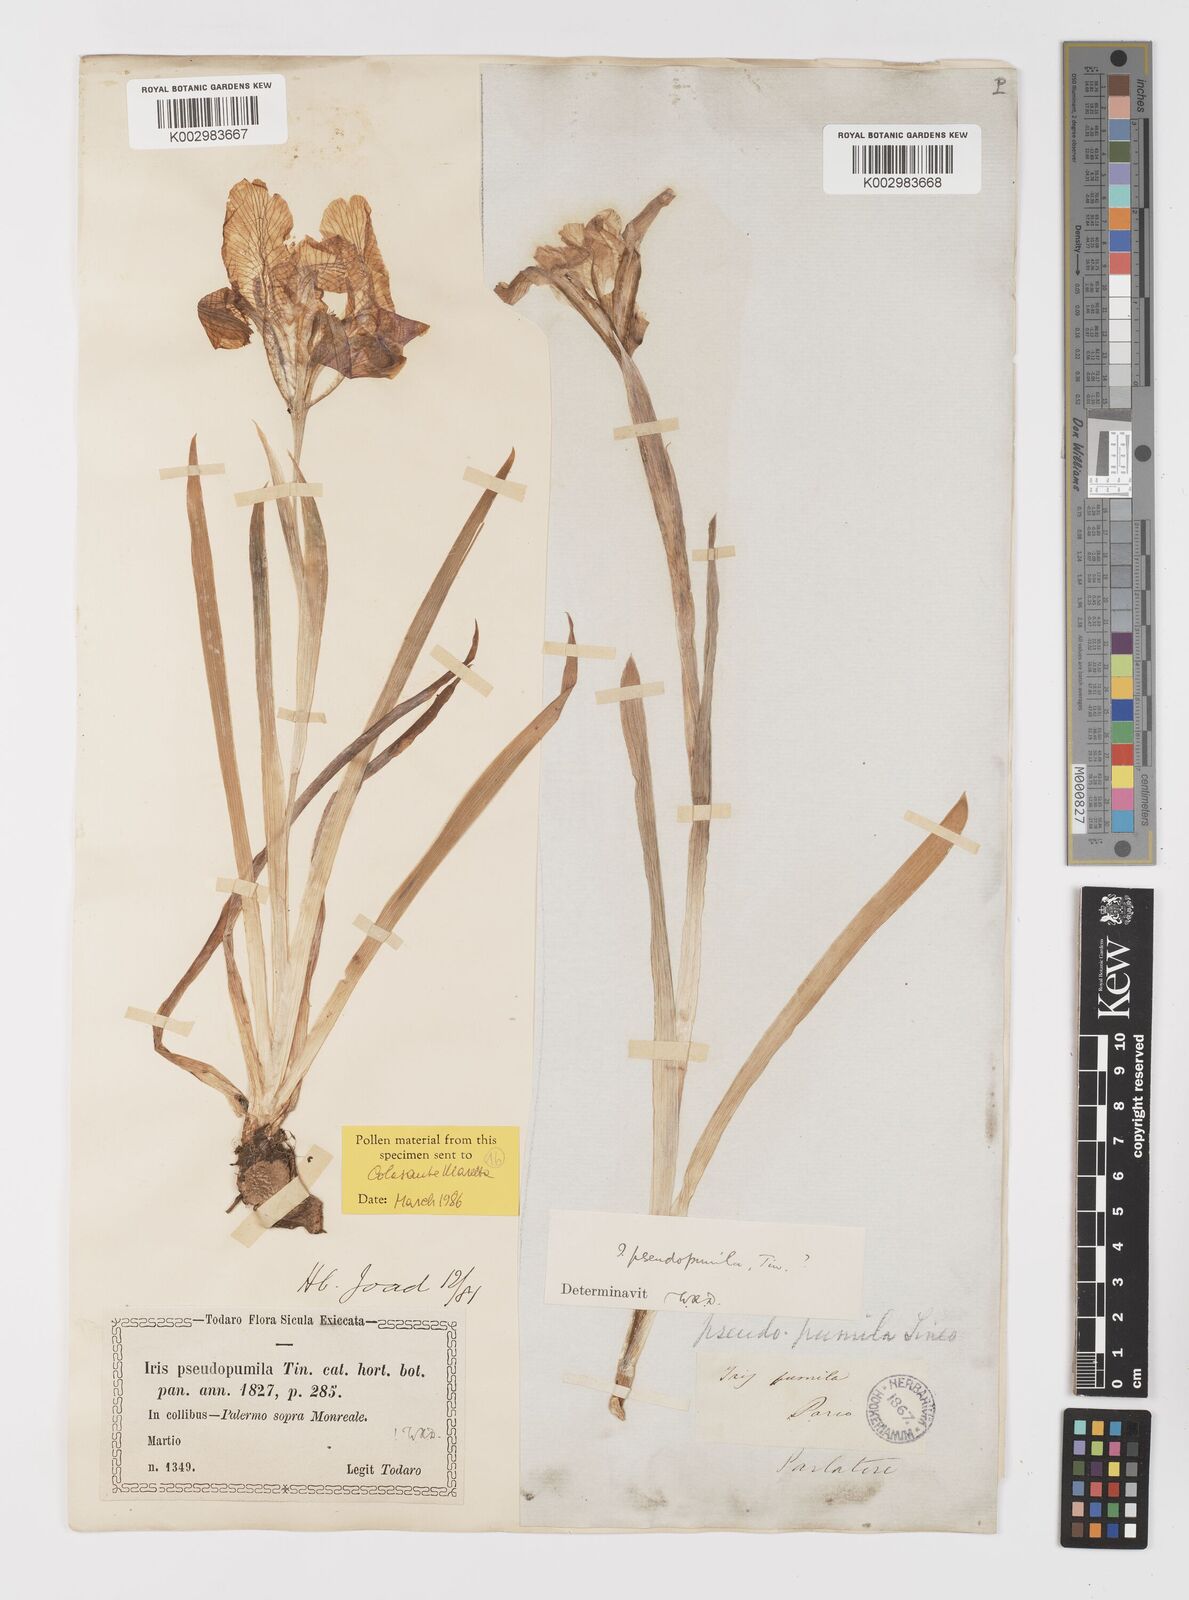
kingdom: Plantae
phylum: Tracheophyta
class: Liliopsida
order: Asparagales
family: Iridaceae
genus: Iris
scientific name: Iris pseudopumila
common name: Southern dwarf iris
